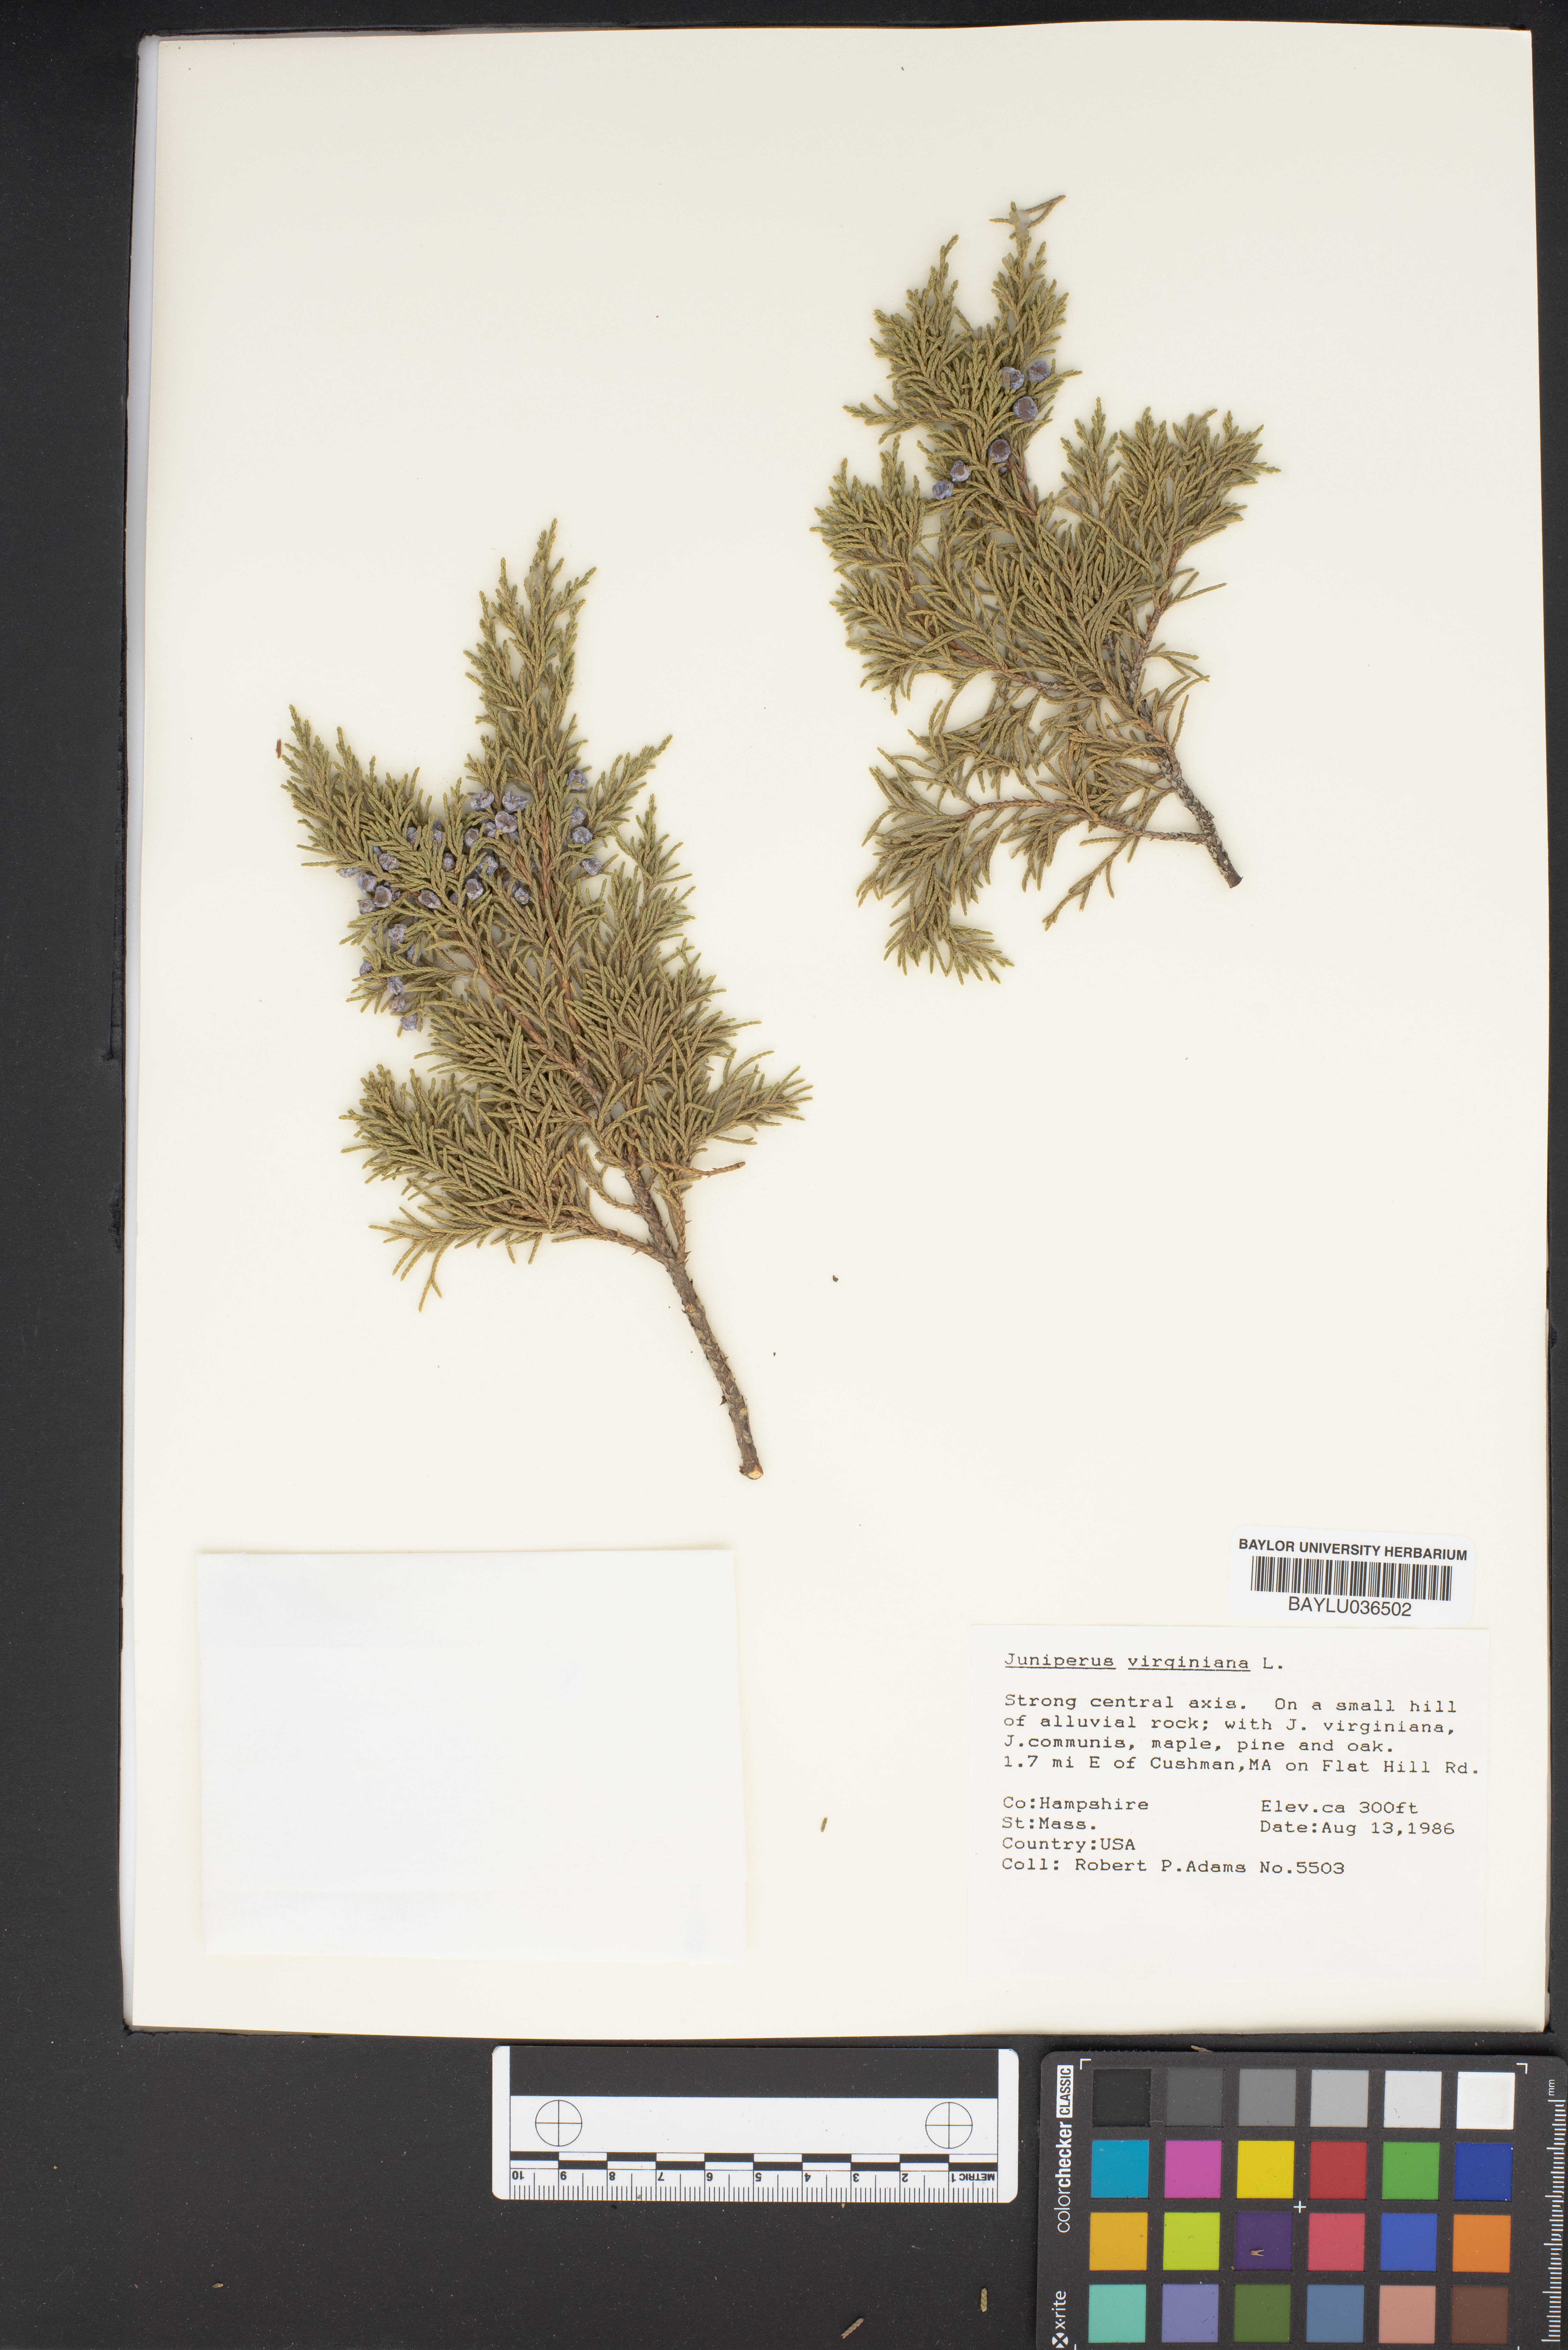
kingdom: Plantae
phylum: Tracheophyta
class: Pinopsida
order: Pinales
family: Cupressaceae
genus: Juniperus
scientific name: Juniperus virginiana
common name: Red juniper
